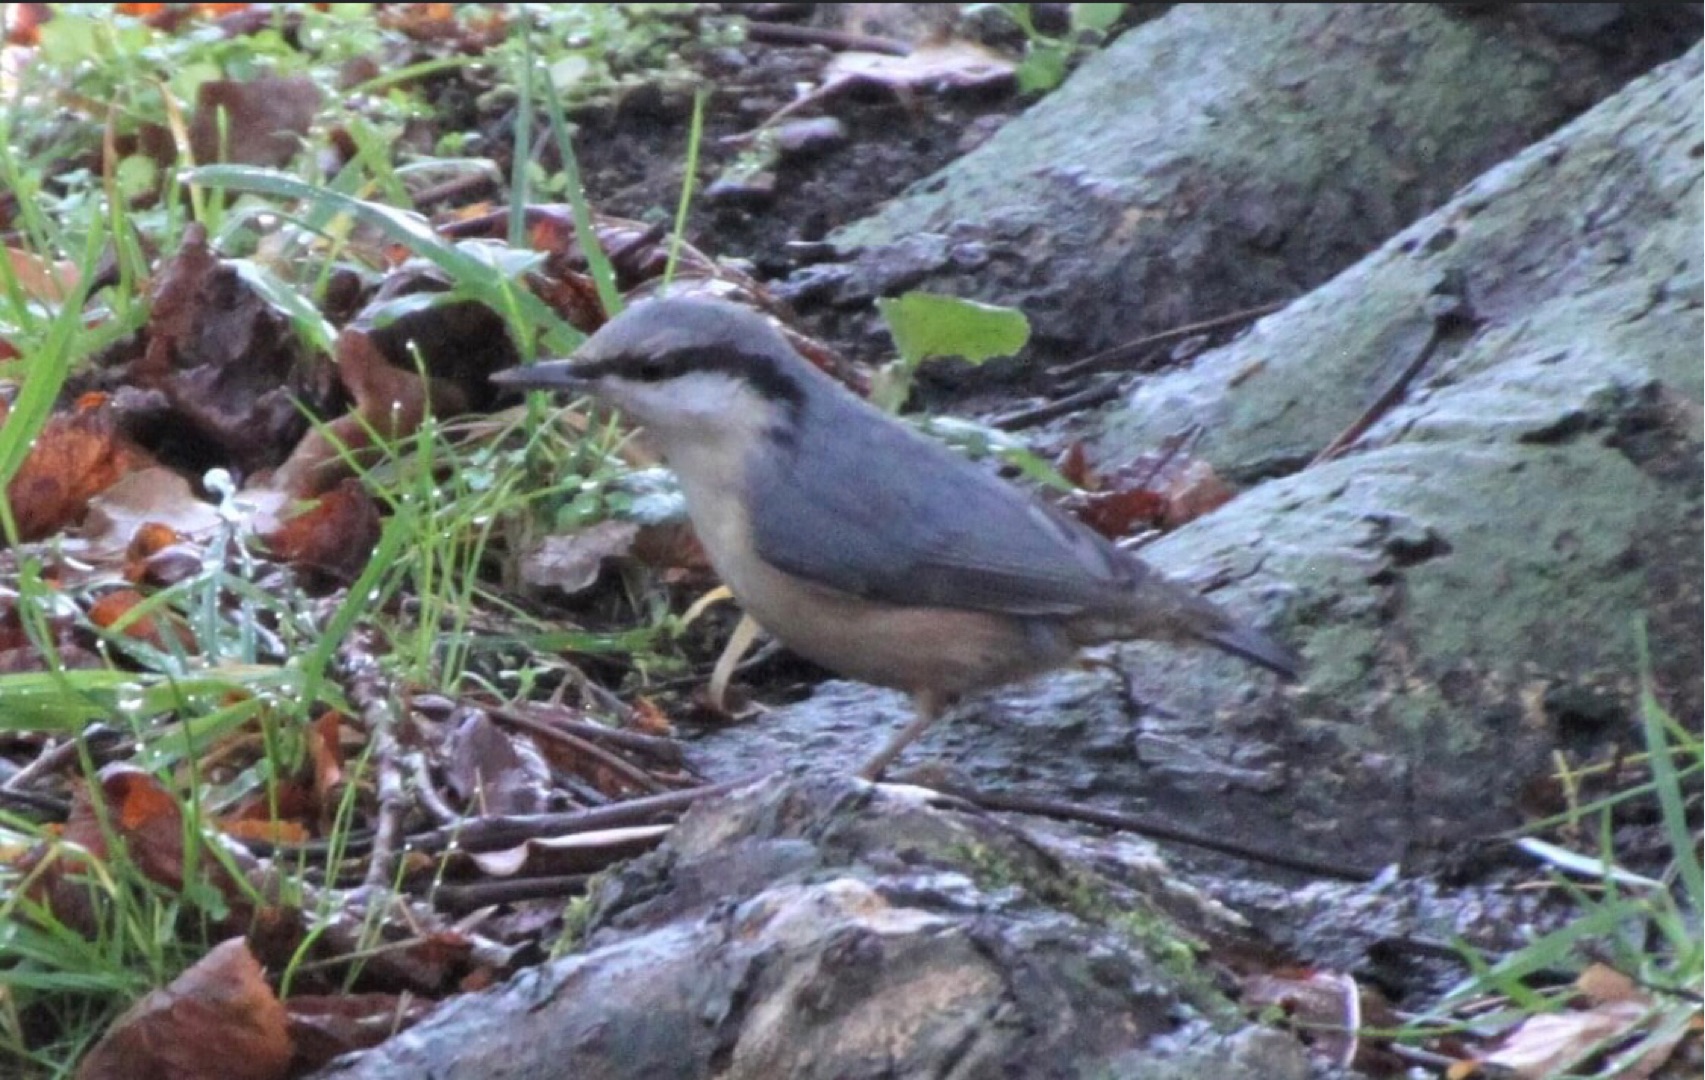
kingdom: Animalia
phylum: Chordata
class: Aves
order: Passeriformes
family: Sittidae
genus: Sitta
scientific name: Sitta europaea
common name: Spætmejse
